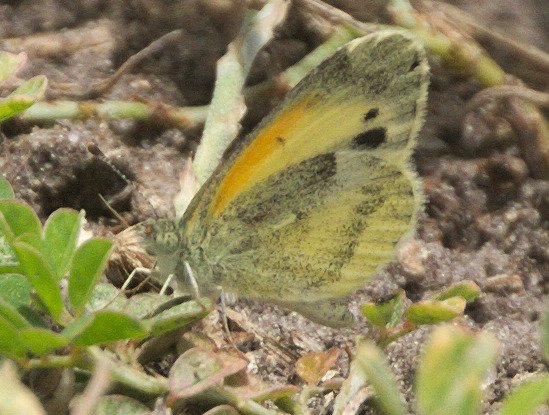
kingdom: Animalia
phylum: Arthropoda
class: Insecta
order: Lepidoptera
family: Pieridae
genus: Nathalis
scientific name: Nathalis iole
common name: Dainty Sulphur
